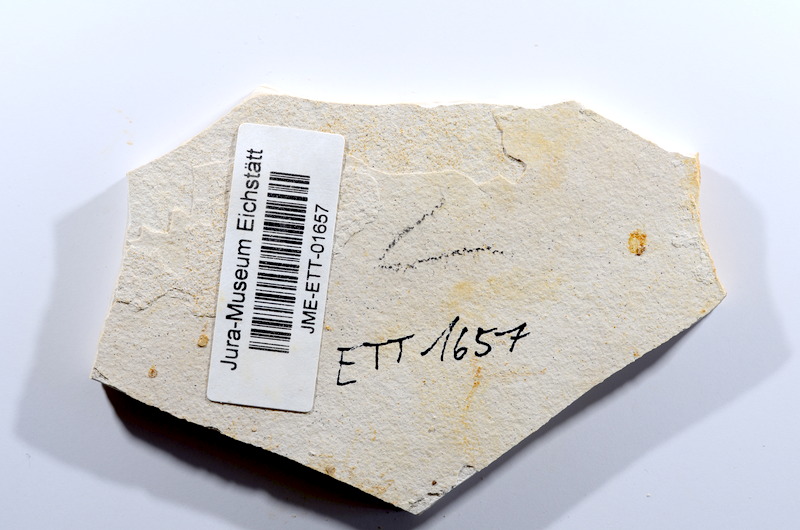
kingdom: Animalia
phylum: Chordata
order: Salmoniformes
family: Orthogonikleithridae
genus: Orthogonikleithrus
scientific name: Orthogonikleithrus hoelli
